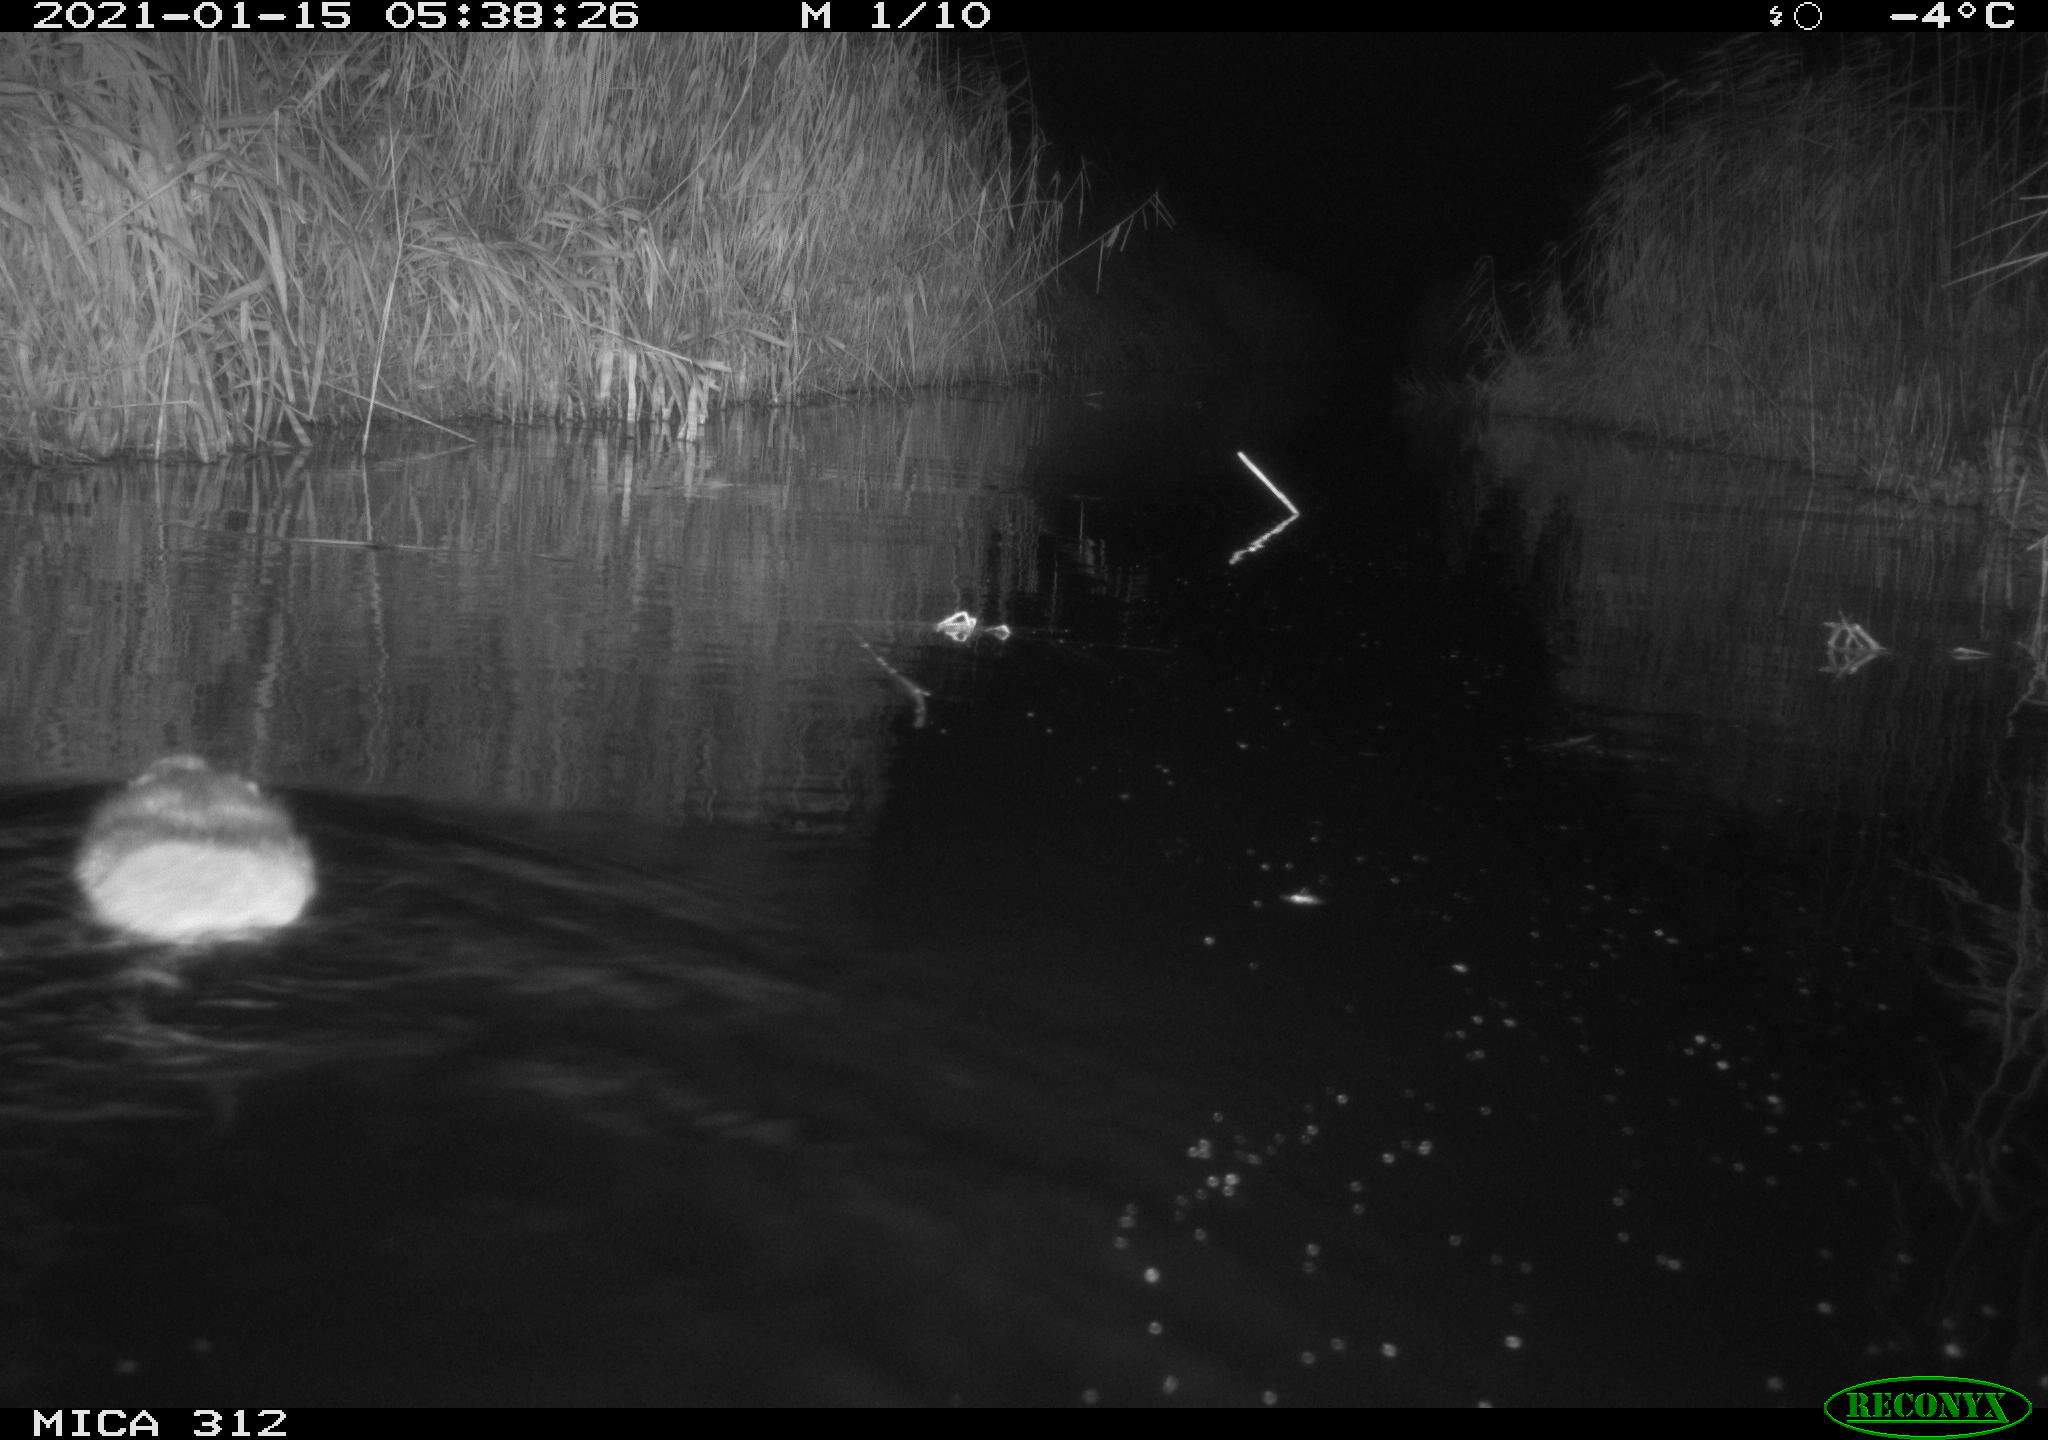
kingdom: Animalia
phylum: Chordata
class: Mammalia
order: Rodentia
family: Muridae
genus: Rattus
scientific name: Rattus norvegicus
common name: Brown rat
